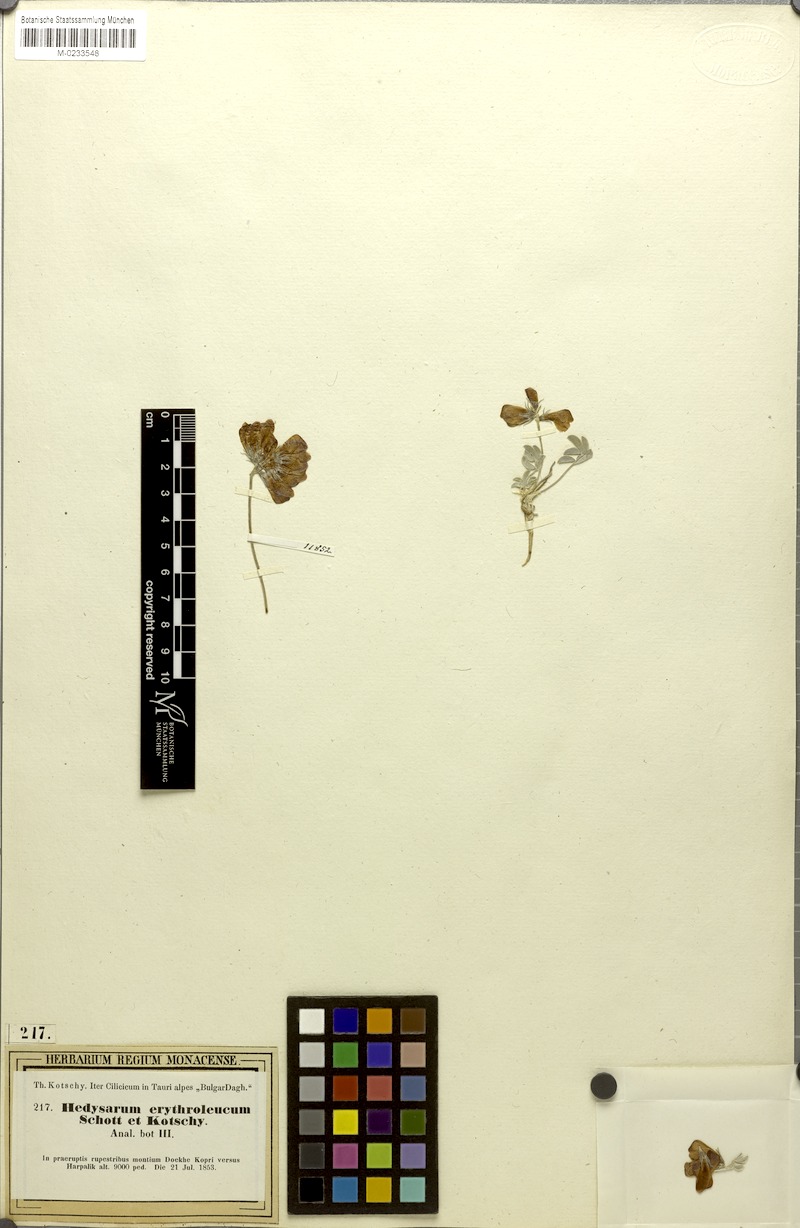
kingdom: Plantae
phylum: Tracheophyta
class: Magnoliopsida
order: Fabales
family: Fabaceae
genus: Hedysarum
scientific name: Hedysarum erythroleucum
